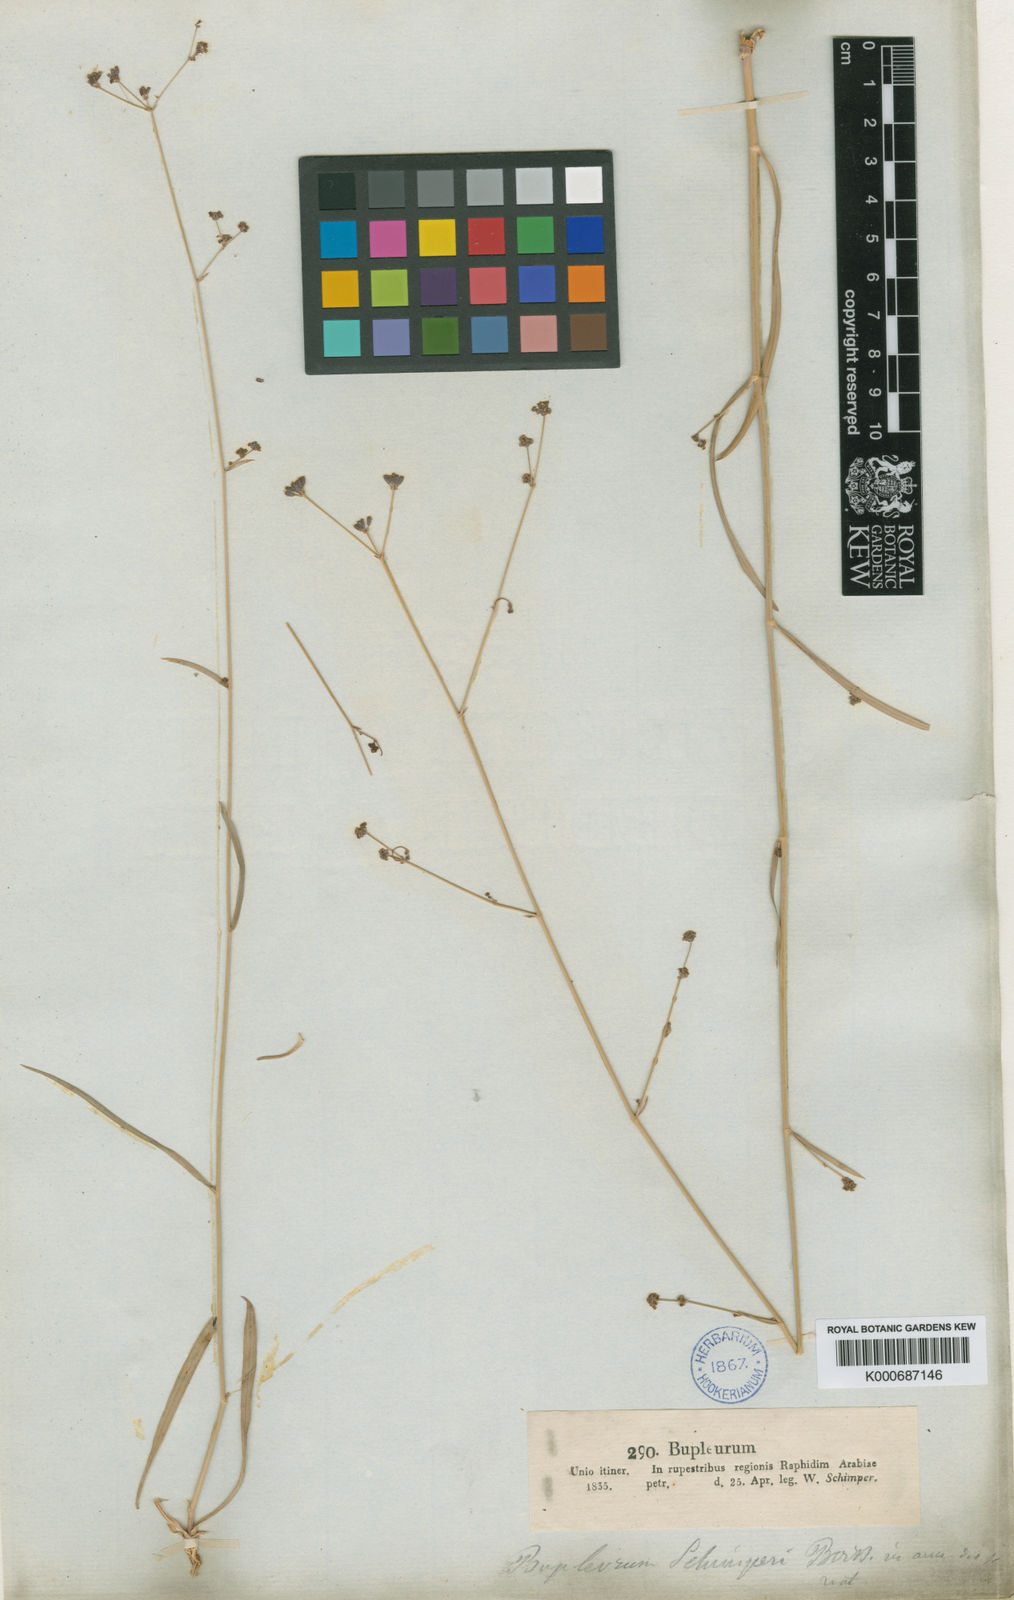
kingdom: Plantae
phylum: Tracheophyta
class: Magnoliopsida
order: Apiales
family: Apiaceae
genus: Bupleurum
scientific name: Bupleurum falcatum
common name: Sickle-leaved hare's-ear
